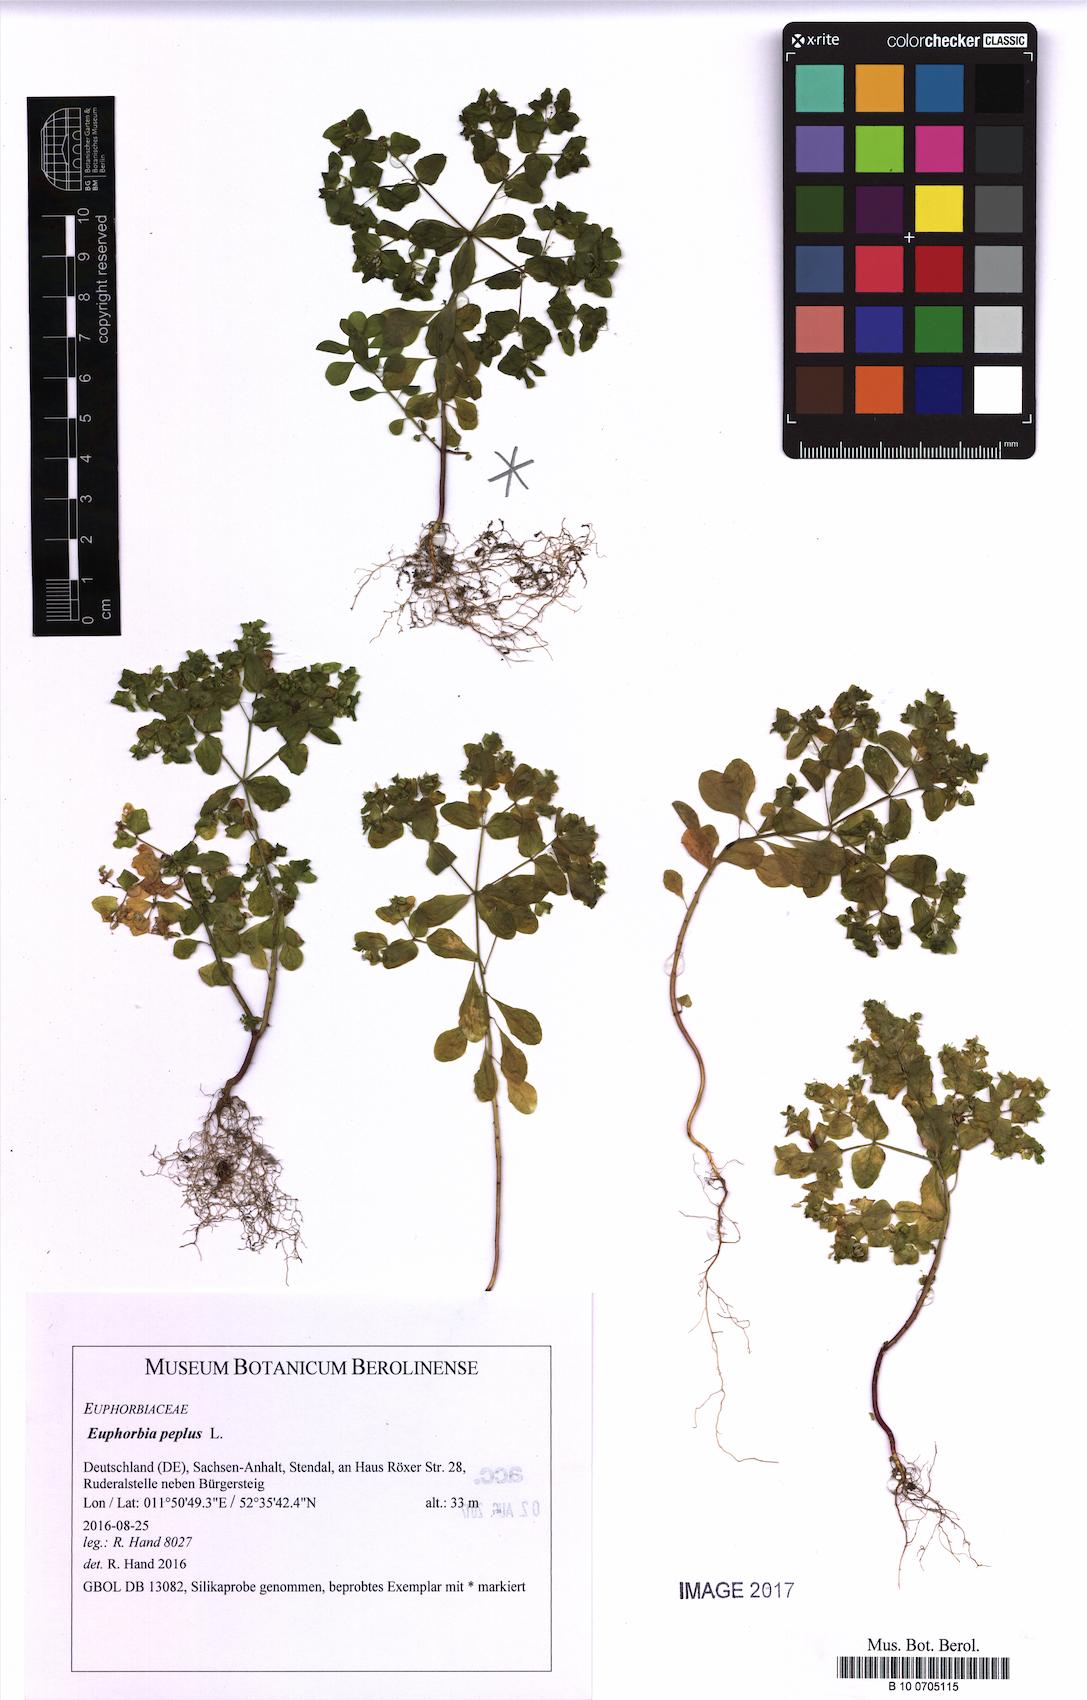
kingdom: Plantae
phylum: Tracheophyta
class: Magnoliopsida
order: Malpighiales
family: Euphorbiaceae
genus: Euphorbia
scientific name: Euphorbia peplus
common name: Petty spurge
